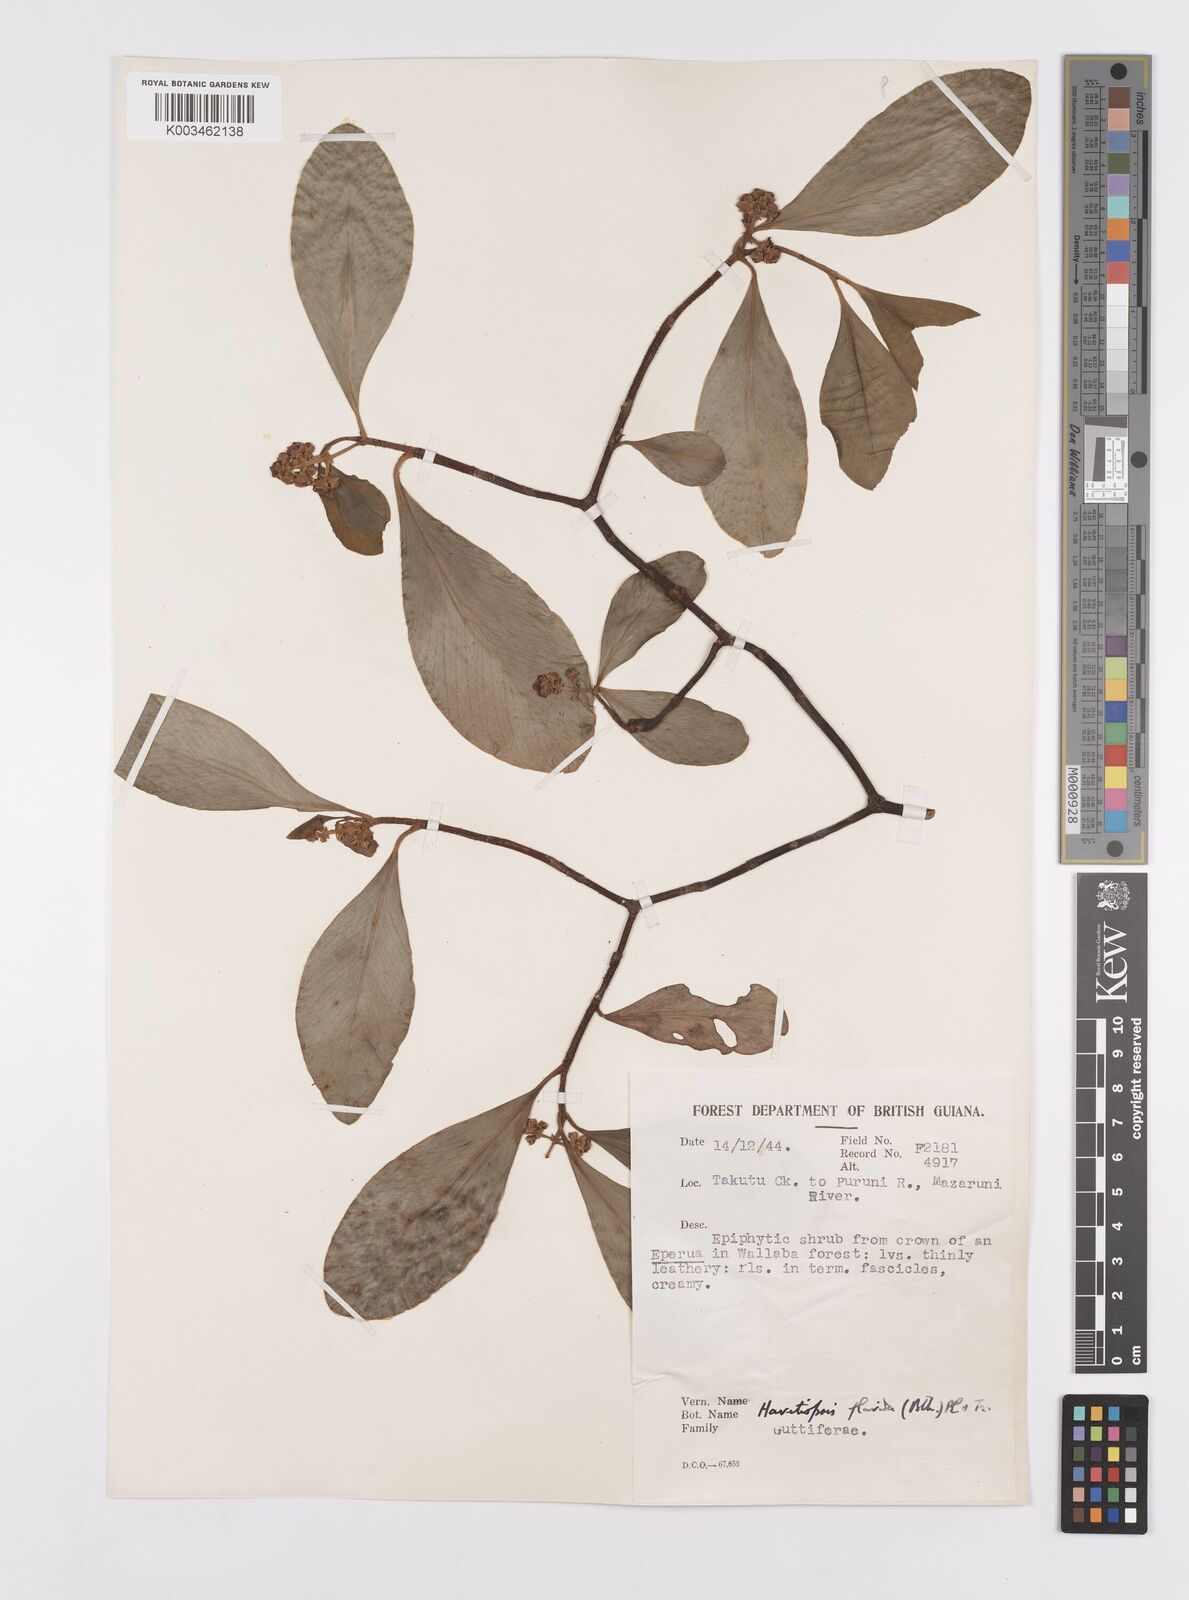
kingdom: Plantae
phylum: Tracheophyta
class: Magnoliopsida
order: Malpighiales
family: Clusiaceae
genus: Clusia
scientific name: Clusia flavida
